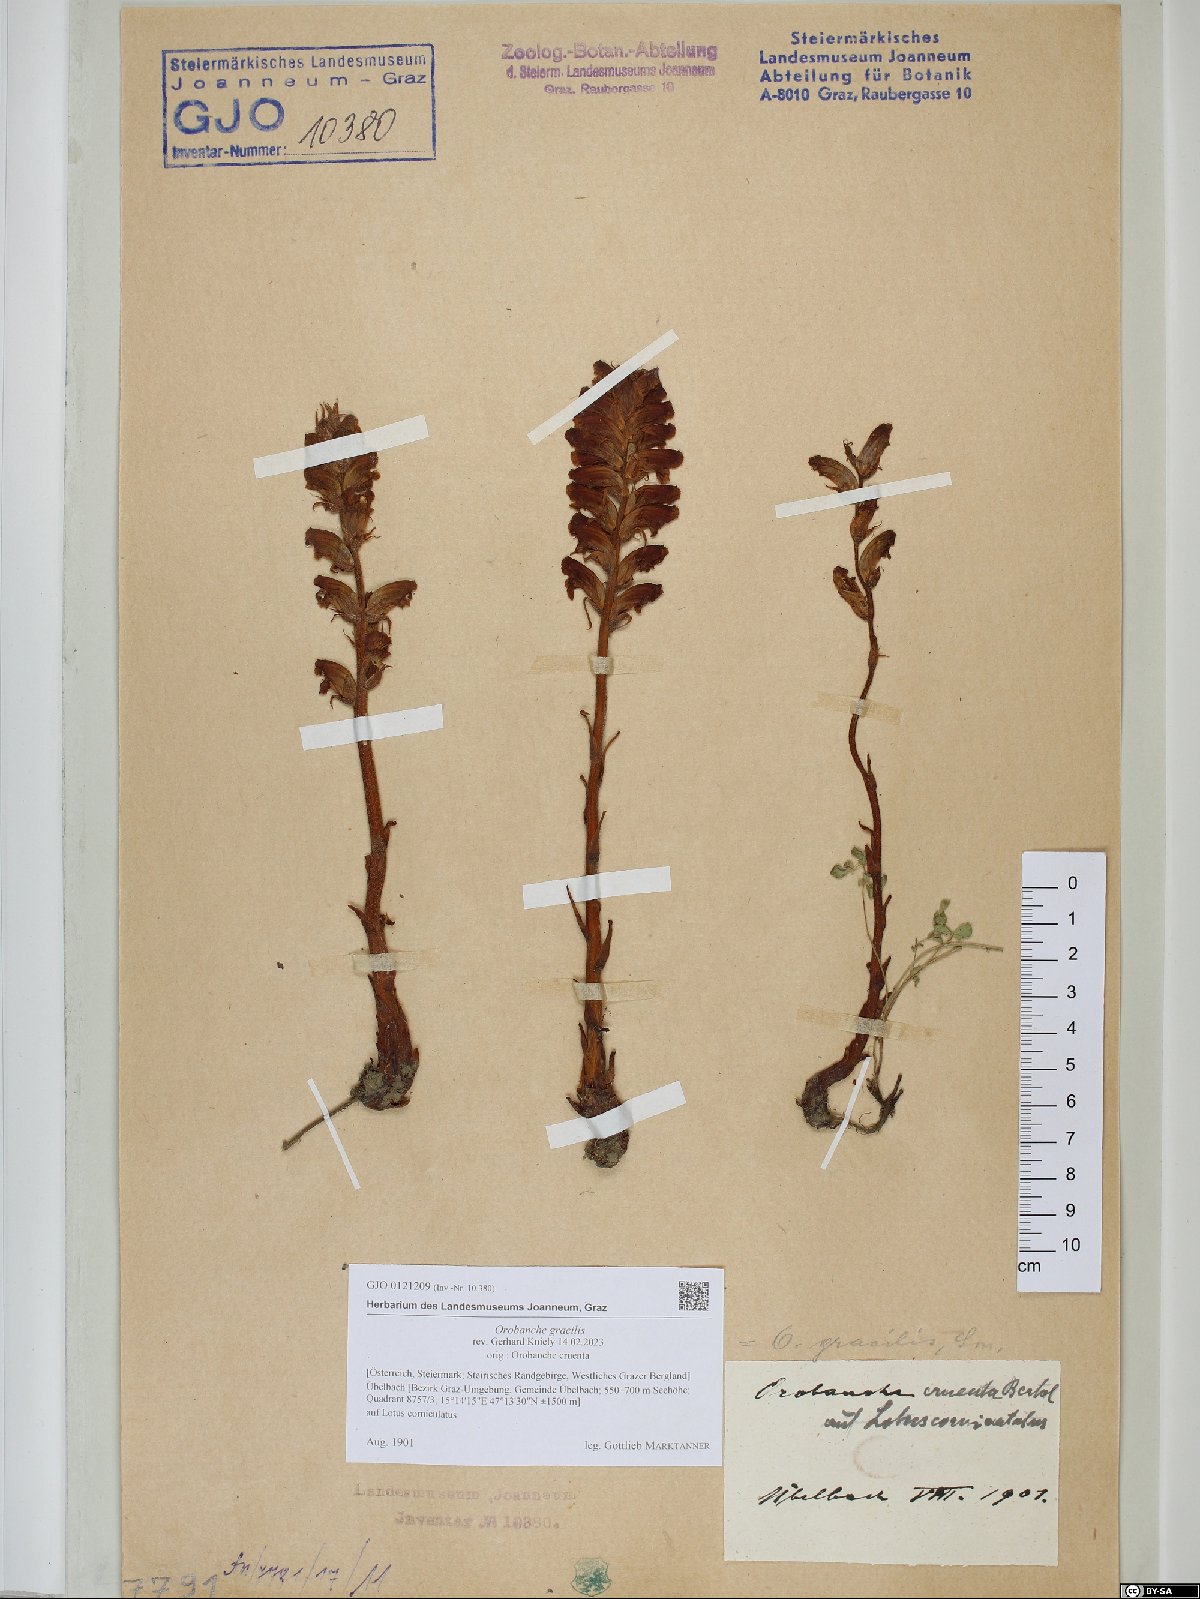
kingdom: Plantae
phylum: Tracheophyta
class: Magnoliopsida
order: Lamiales
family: Orobanchaceae
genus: Orobanche
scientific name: Orobanche gracilis
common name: Slender broomrape
